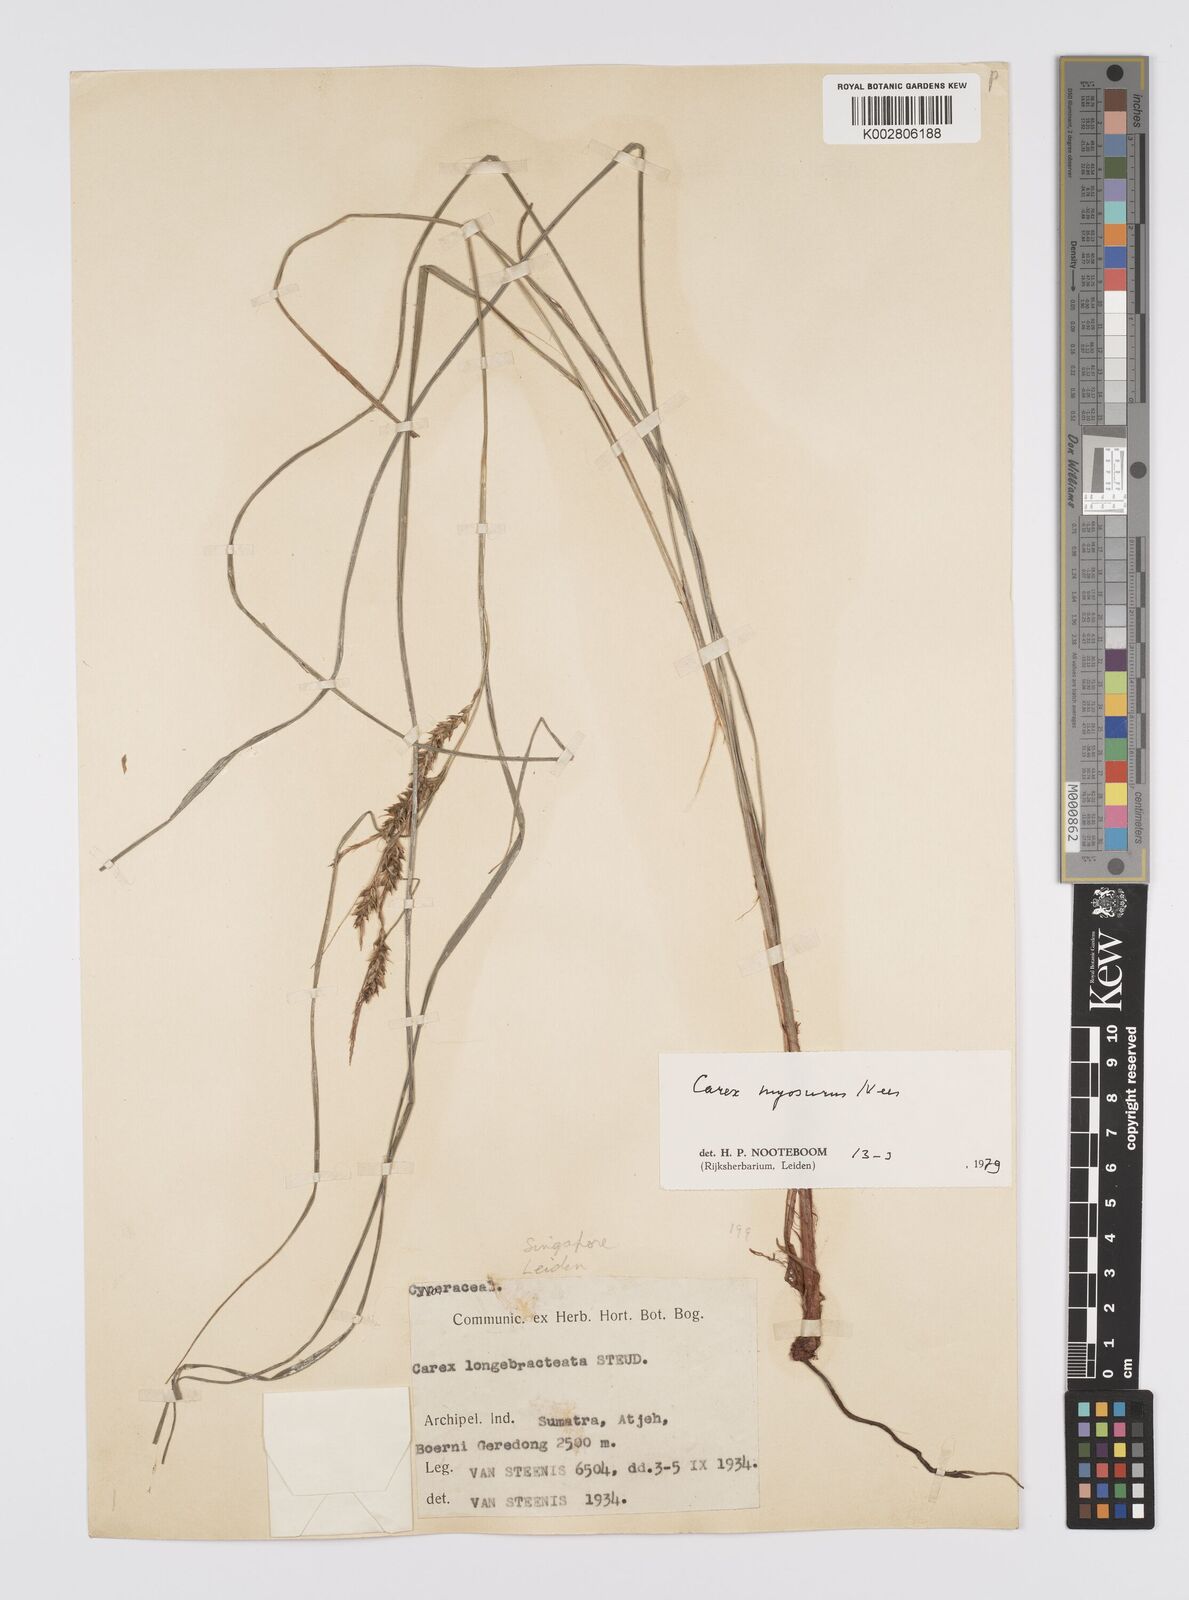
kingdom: Plantae
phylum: Tracheophyta
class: Liliopsida
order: Poales
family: Cyperaceae
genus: Carex
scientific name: Carex myosurus
